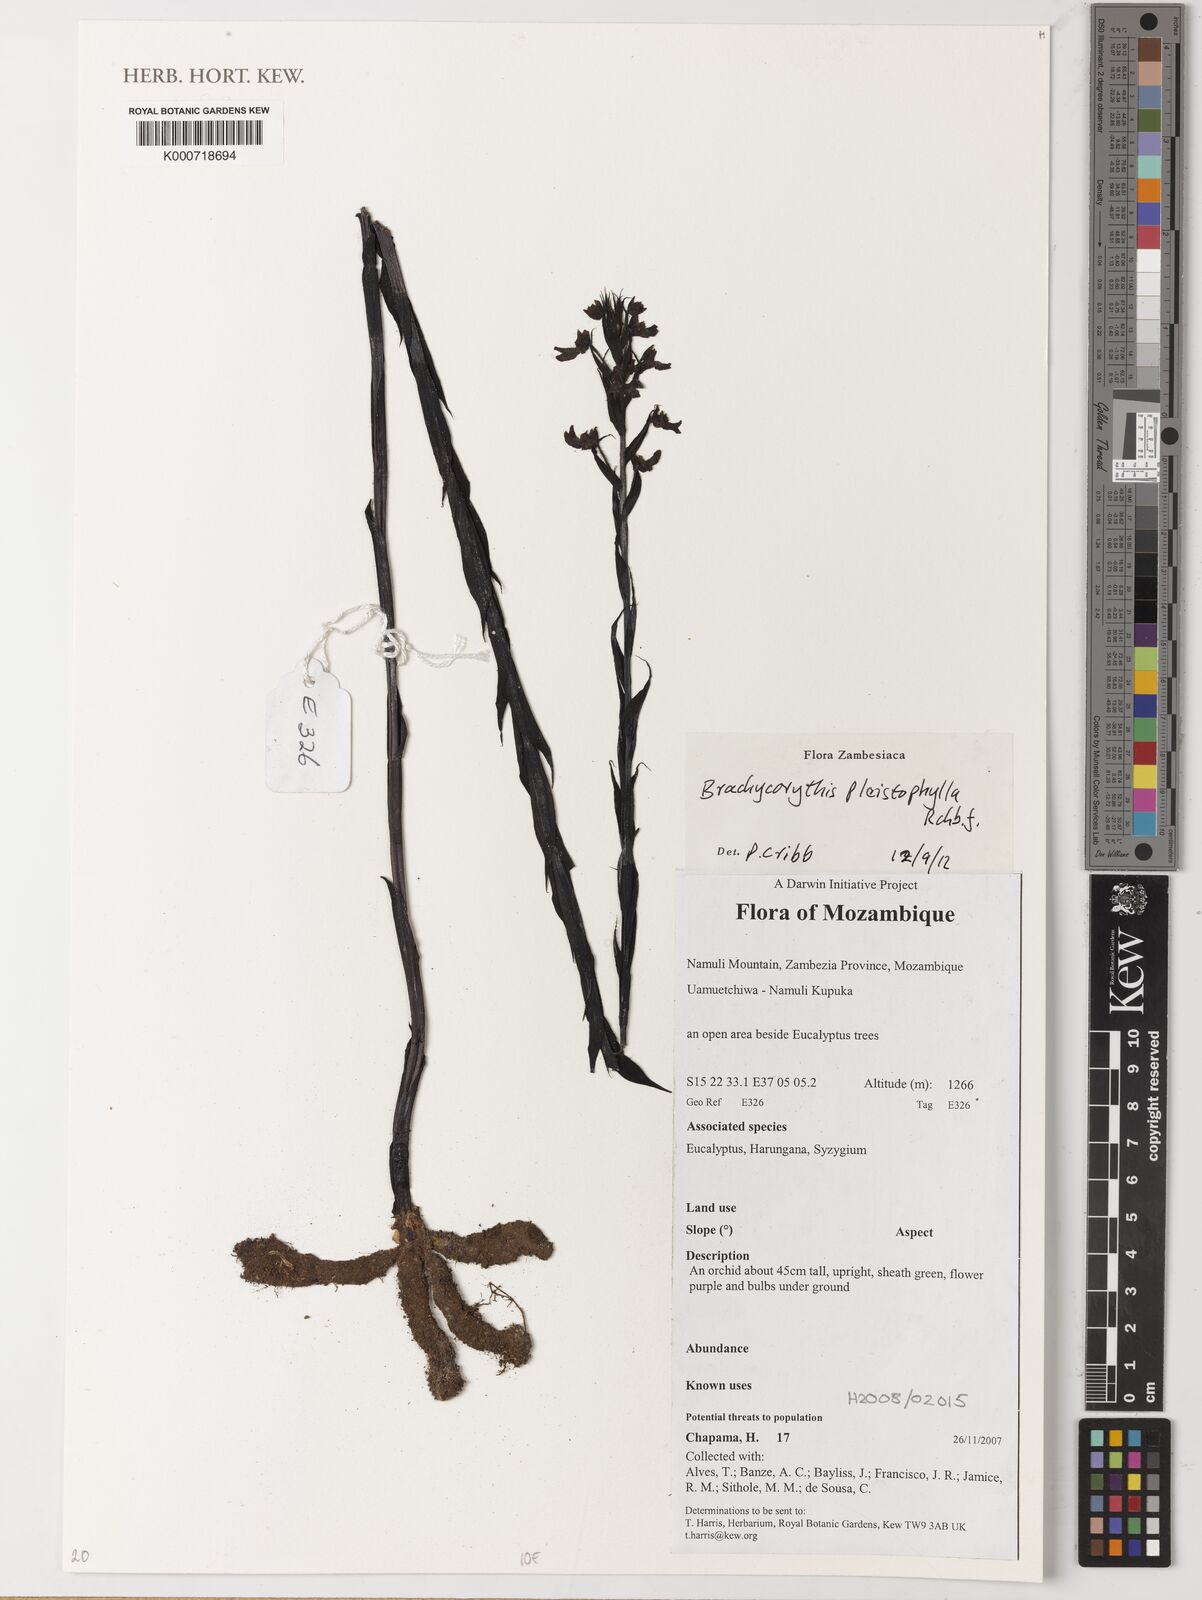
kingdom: Plantae
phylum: Tracheophyta
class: Liliopsida
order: Asparagales
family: Orchidaceae
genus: Brachycorythis
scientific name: Brachycorythis pleistophylla
